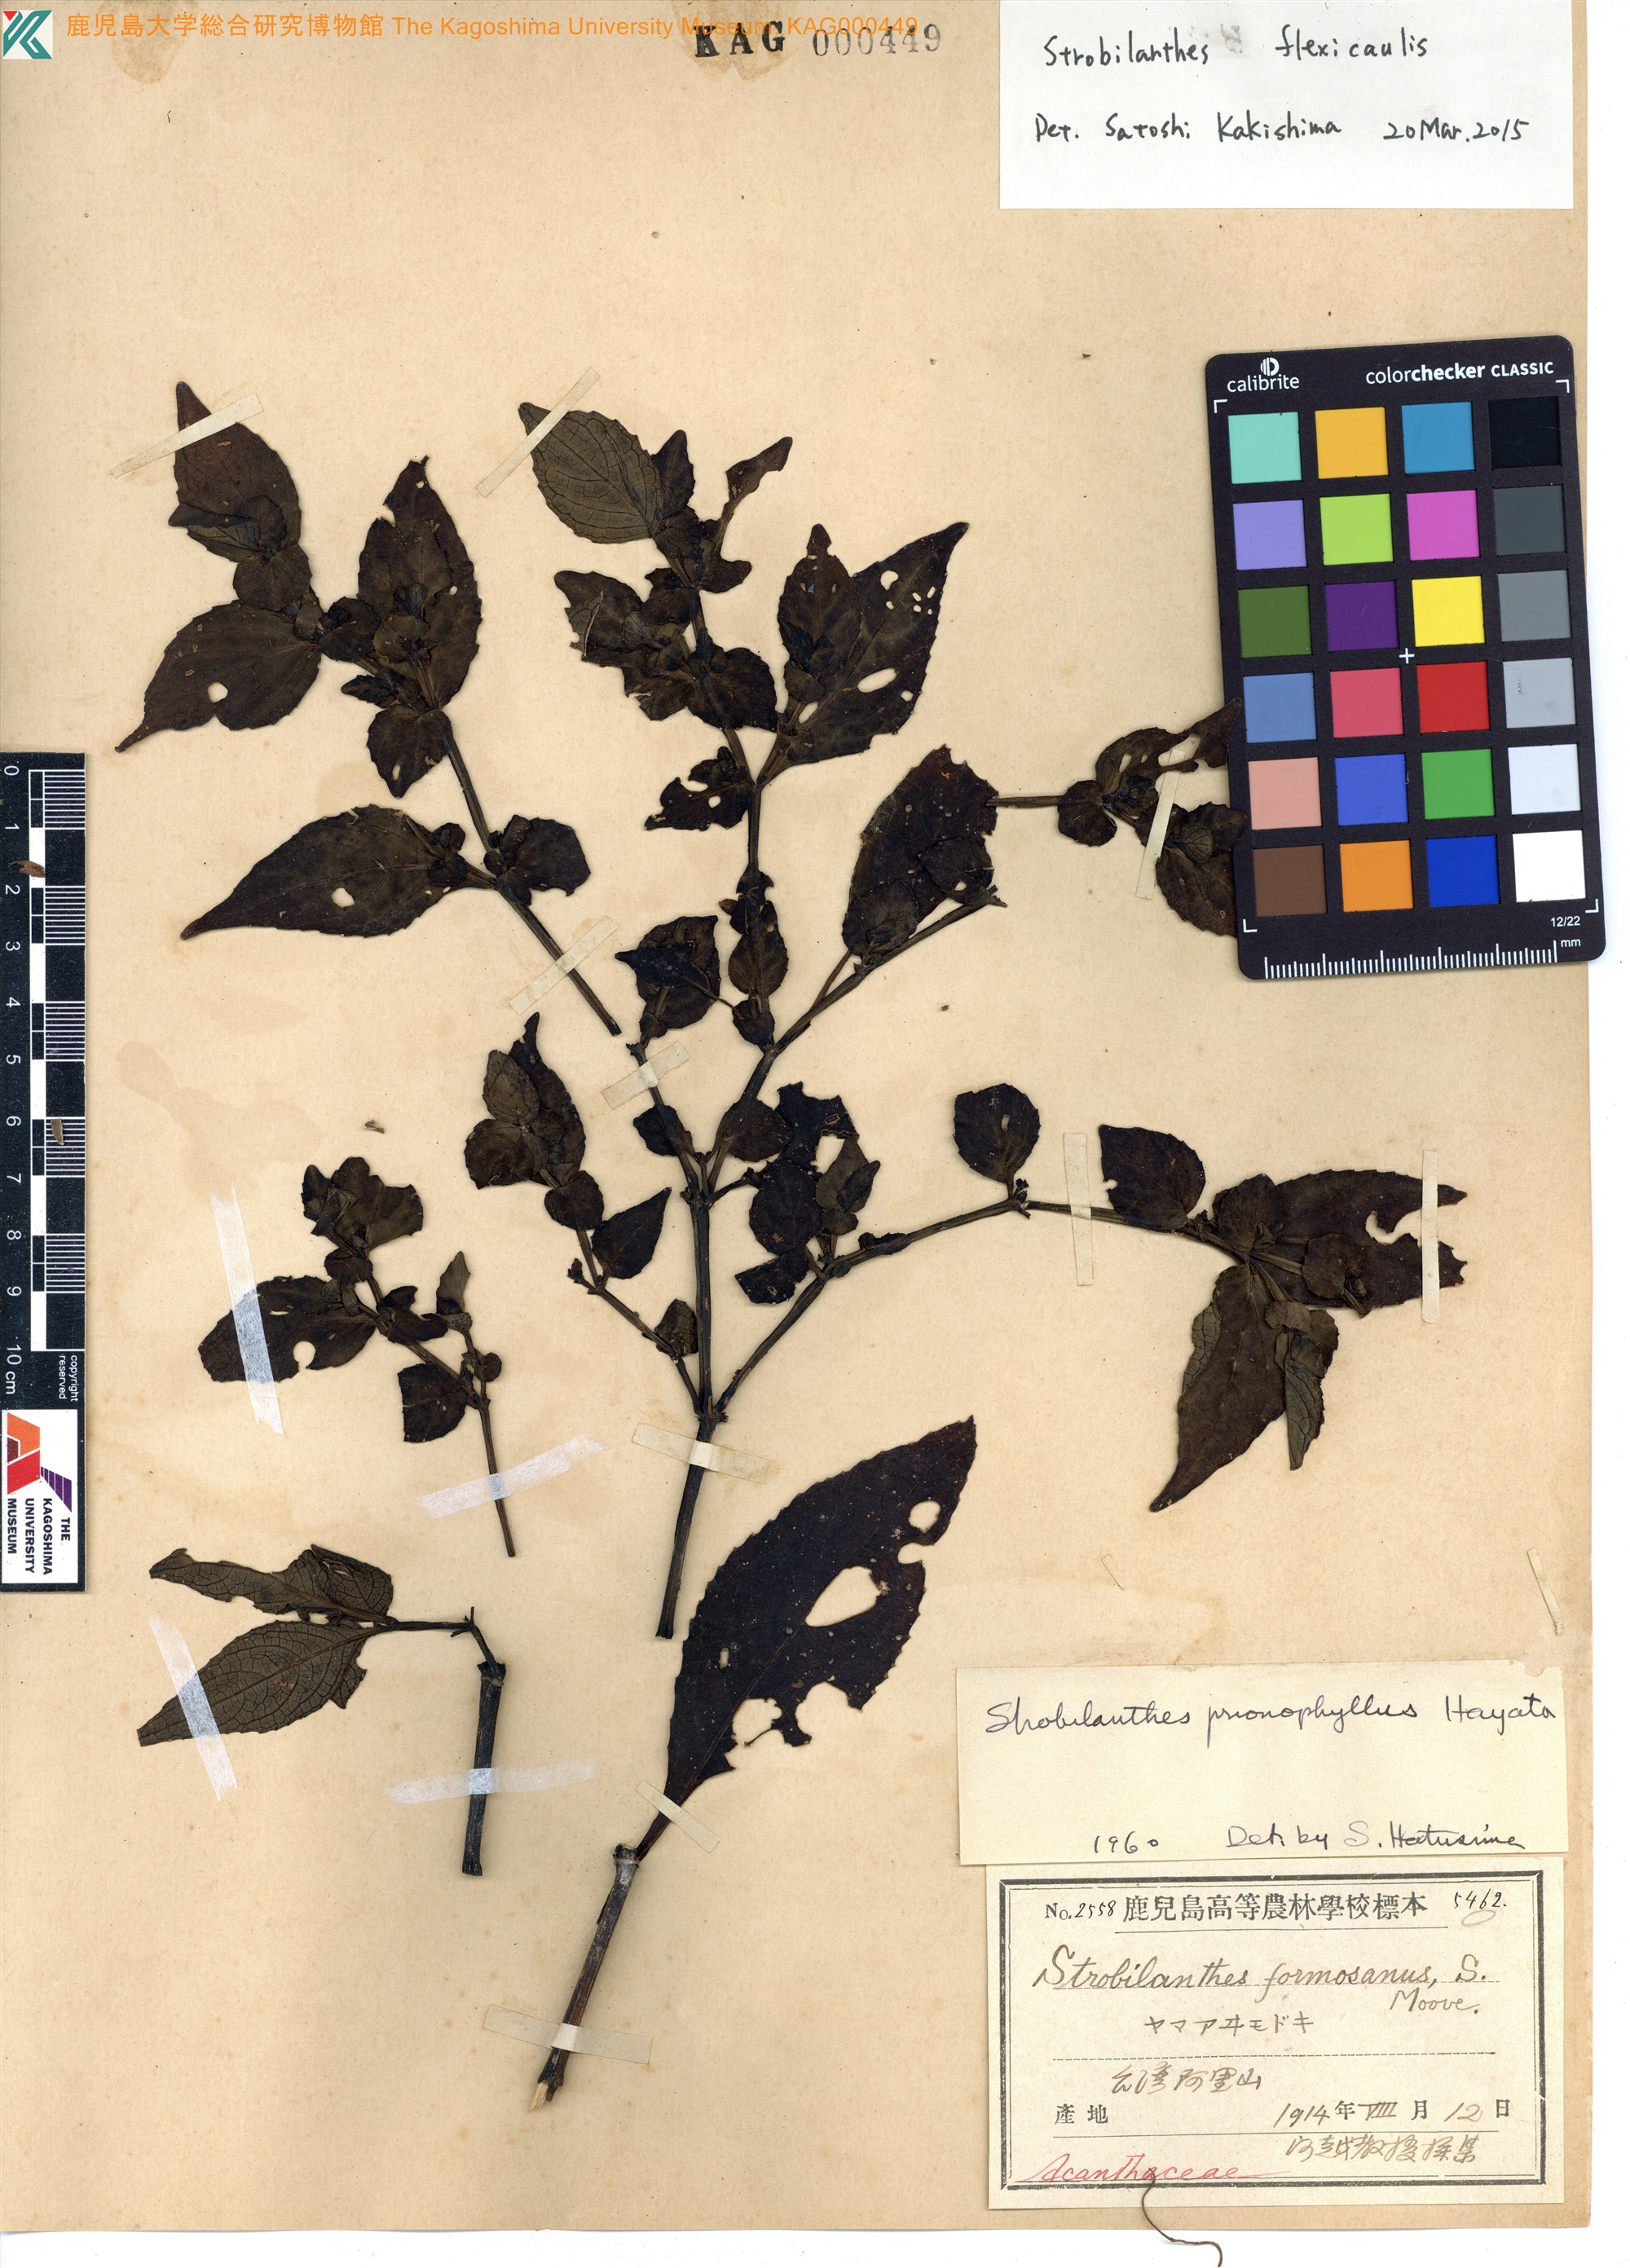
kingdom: Plantae
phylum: Tracheophyta
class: Magnoliopsida
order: Lamiales
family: Acanthaceae
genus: Strobilanthes
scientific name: Strobilanthes flexicaulis
